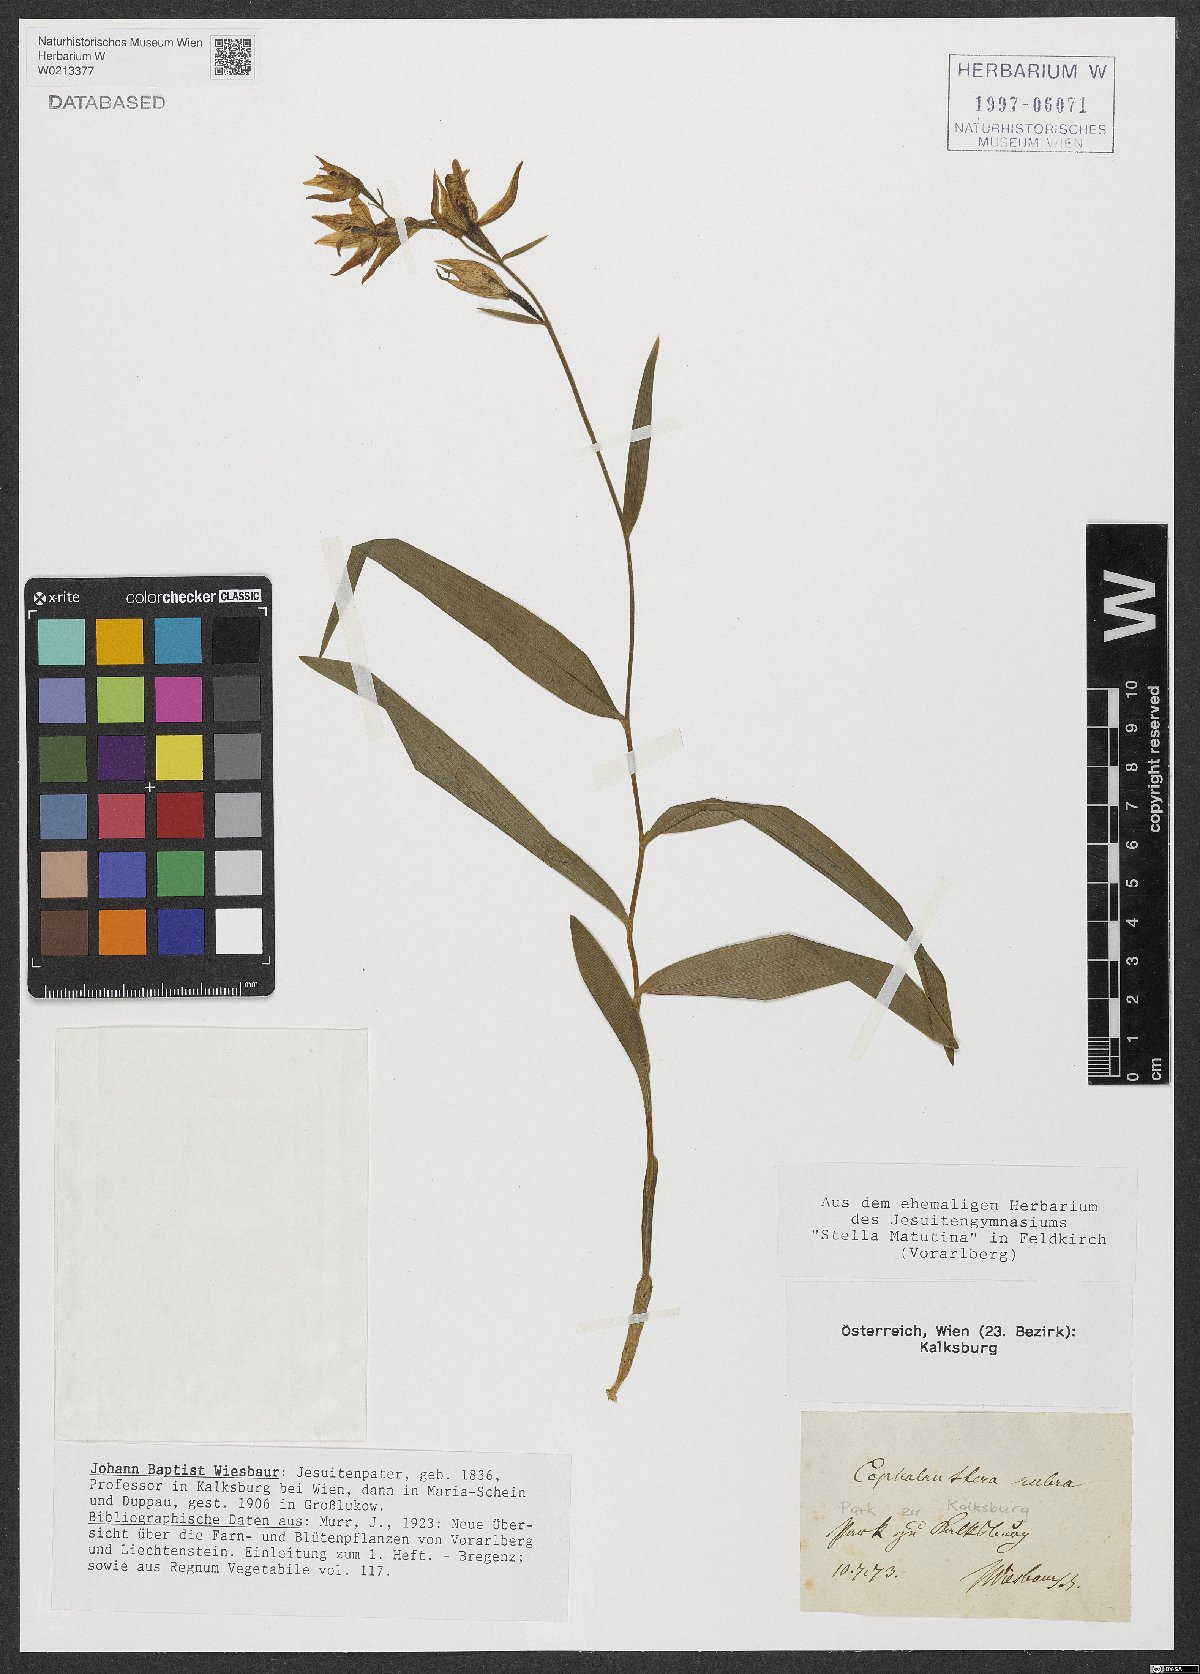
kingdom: Plantae
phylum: Tracheophyta
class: Liliopsida
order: Asparagales
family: Orchidaceae
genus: Cephalanthera
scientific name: Cephalanthera rubra
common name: Red helleborine
